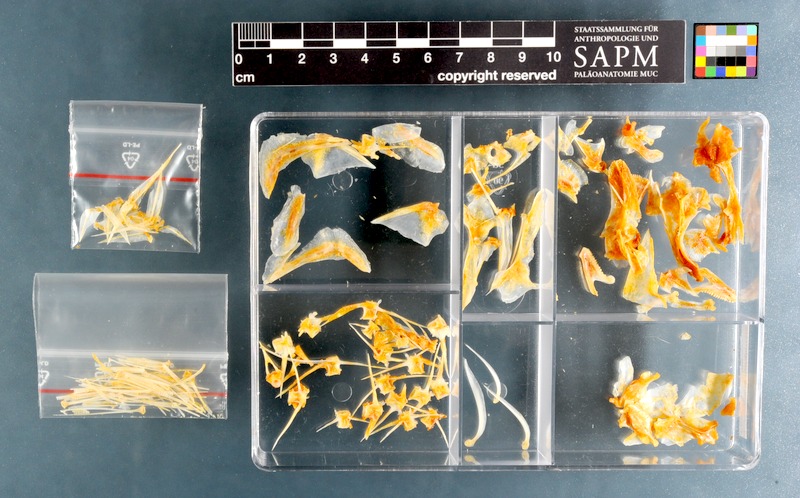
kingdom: Animalia
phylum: Chordata
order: Perciformes
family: Sparidae
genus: Pagellus
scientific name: Pagellus natalensis
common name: Natal pandora
